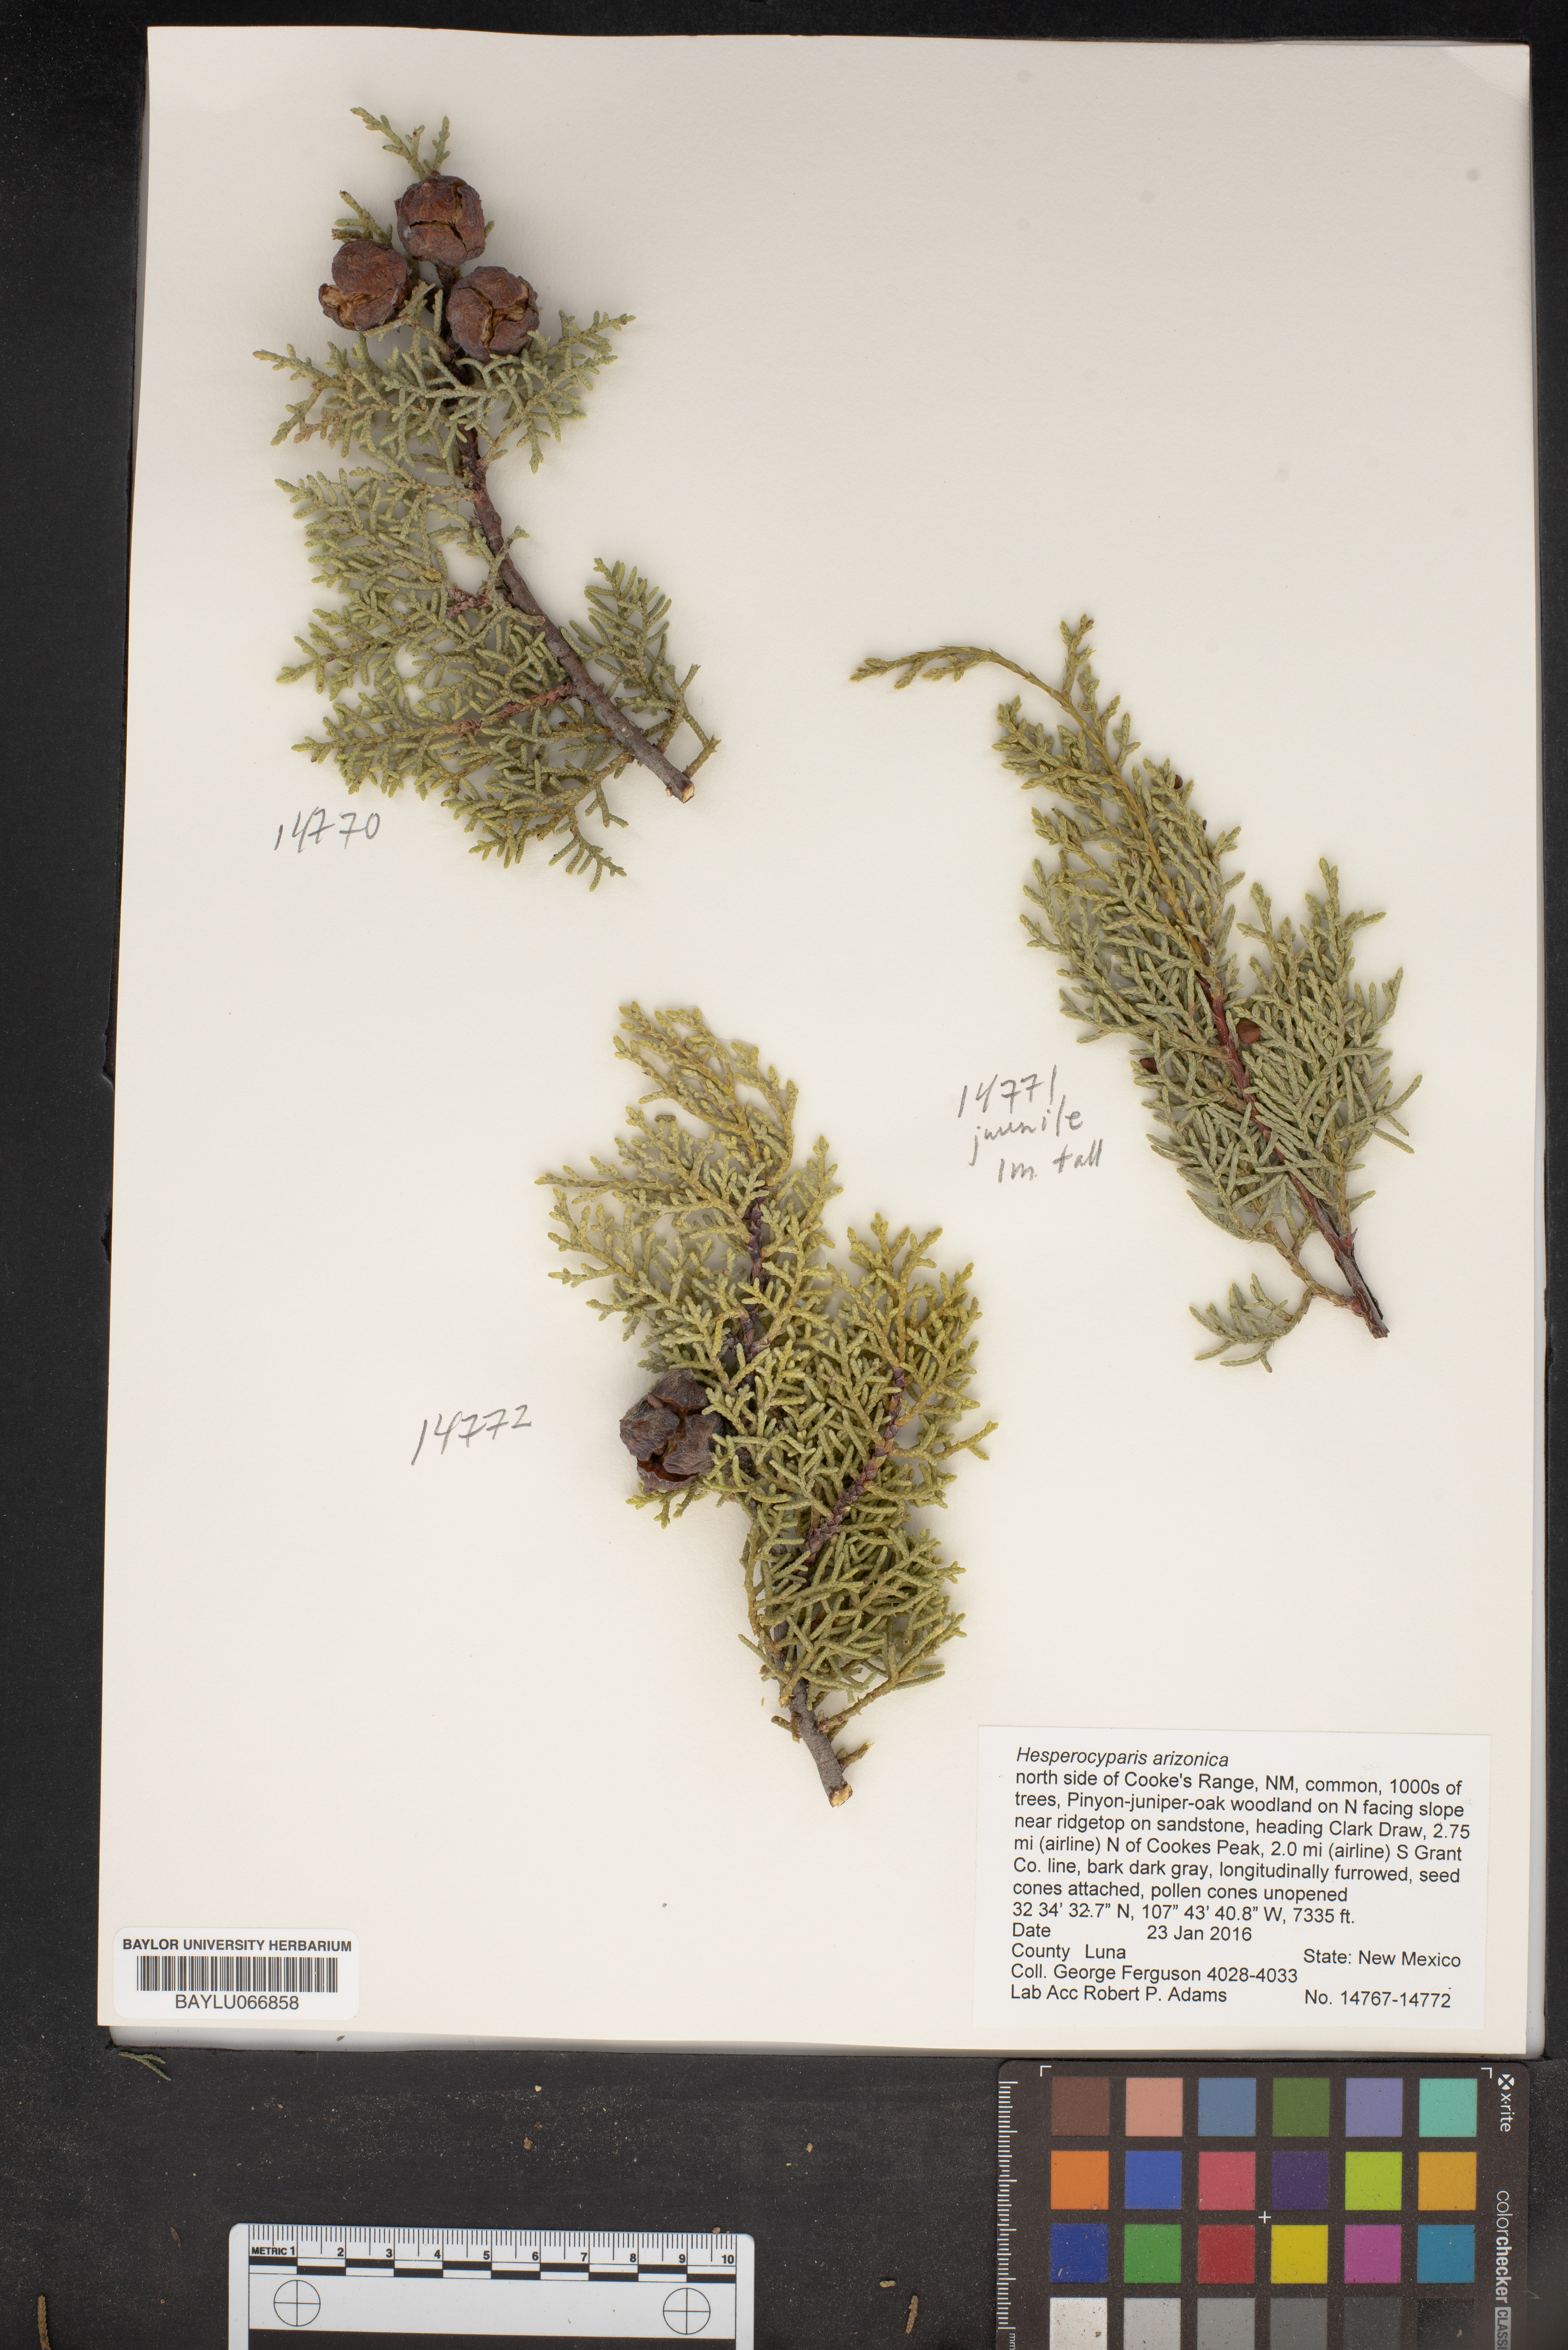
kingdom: Plantae
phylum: Tracheophyta
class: Pinopsida
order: Pinales
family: Cupressaceae
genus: Cupressus
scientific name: Cupressus arizonica
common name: Arizona cypress
